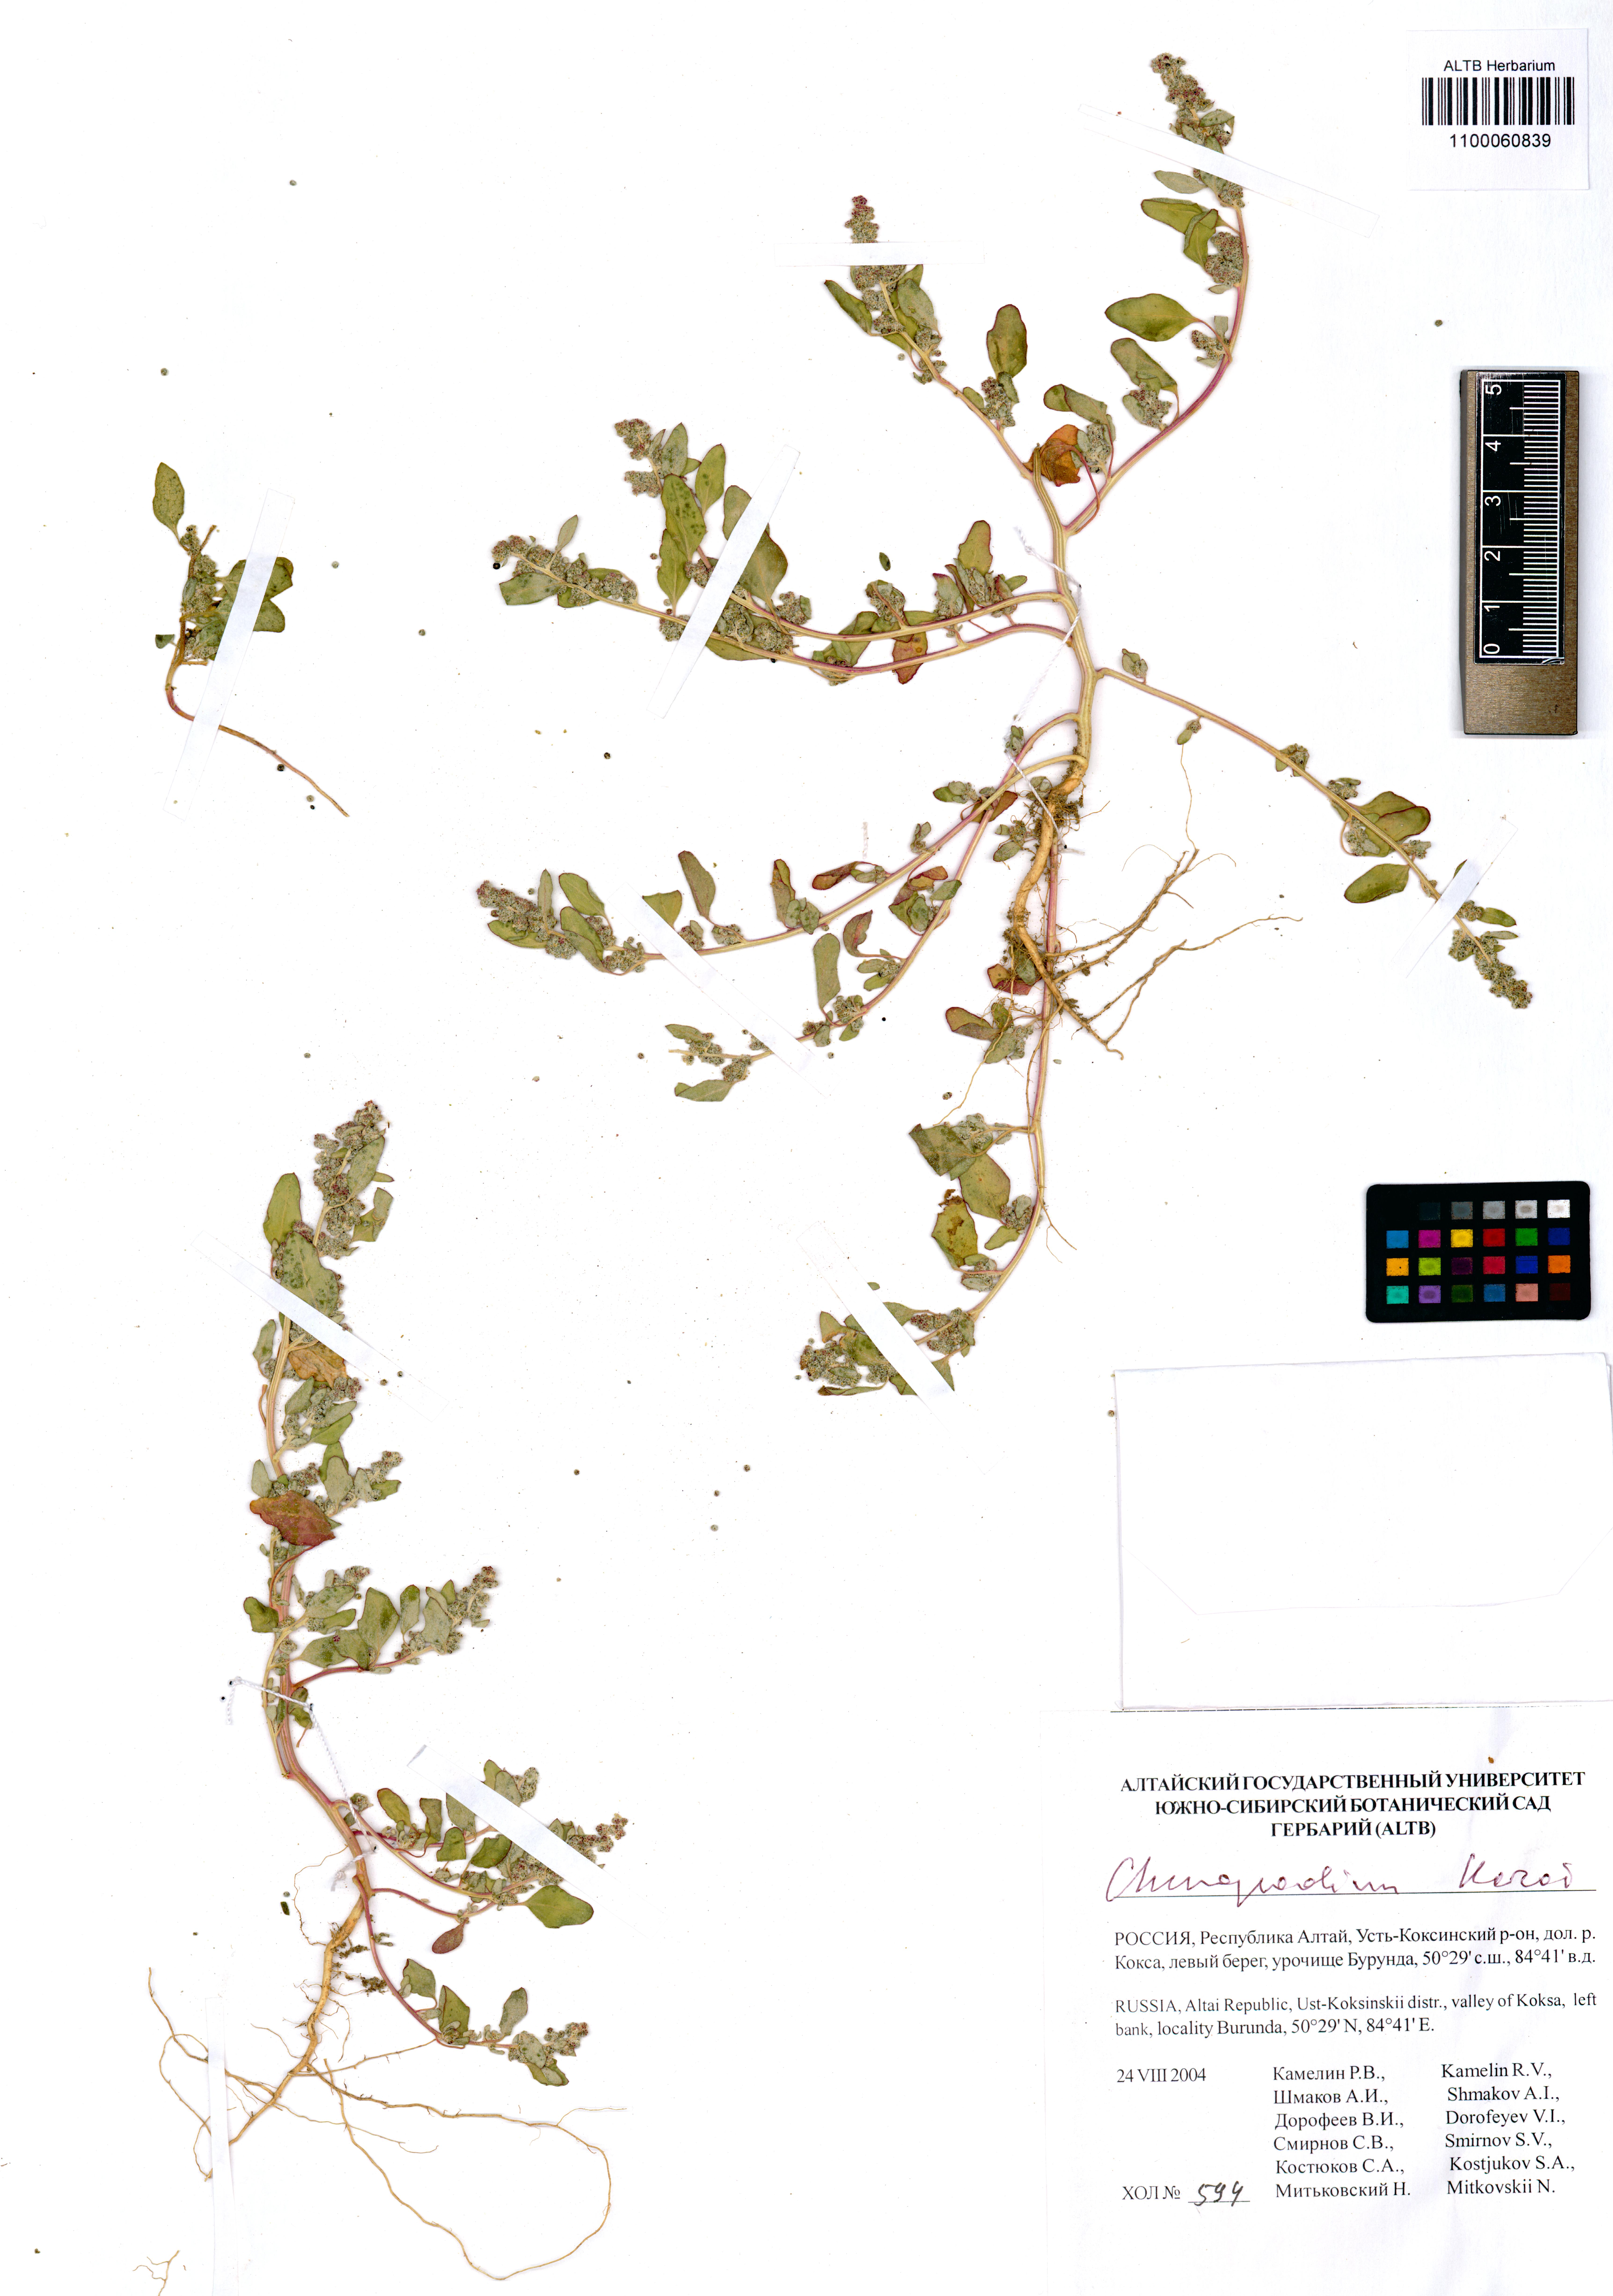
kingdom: Plantae
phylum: Tracheophyta
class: Magnoliopsida
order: Caryophyllales
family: Amaranthaceae
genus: Chenopodium
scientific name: Chenopodium karoi
